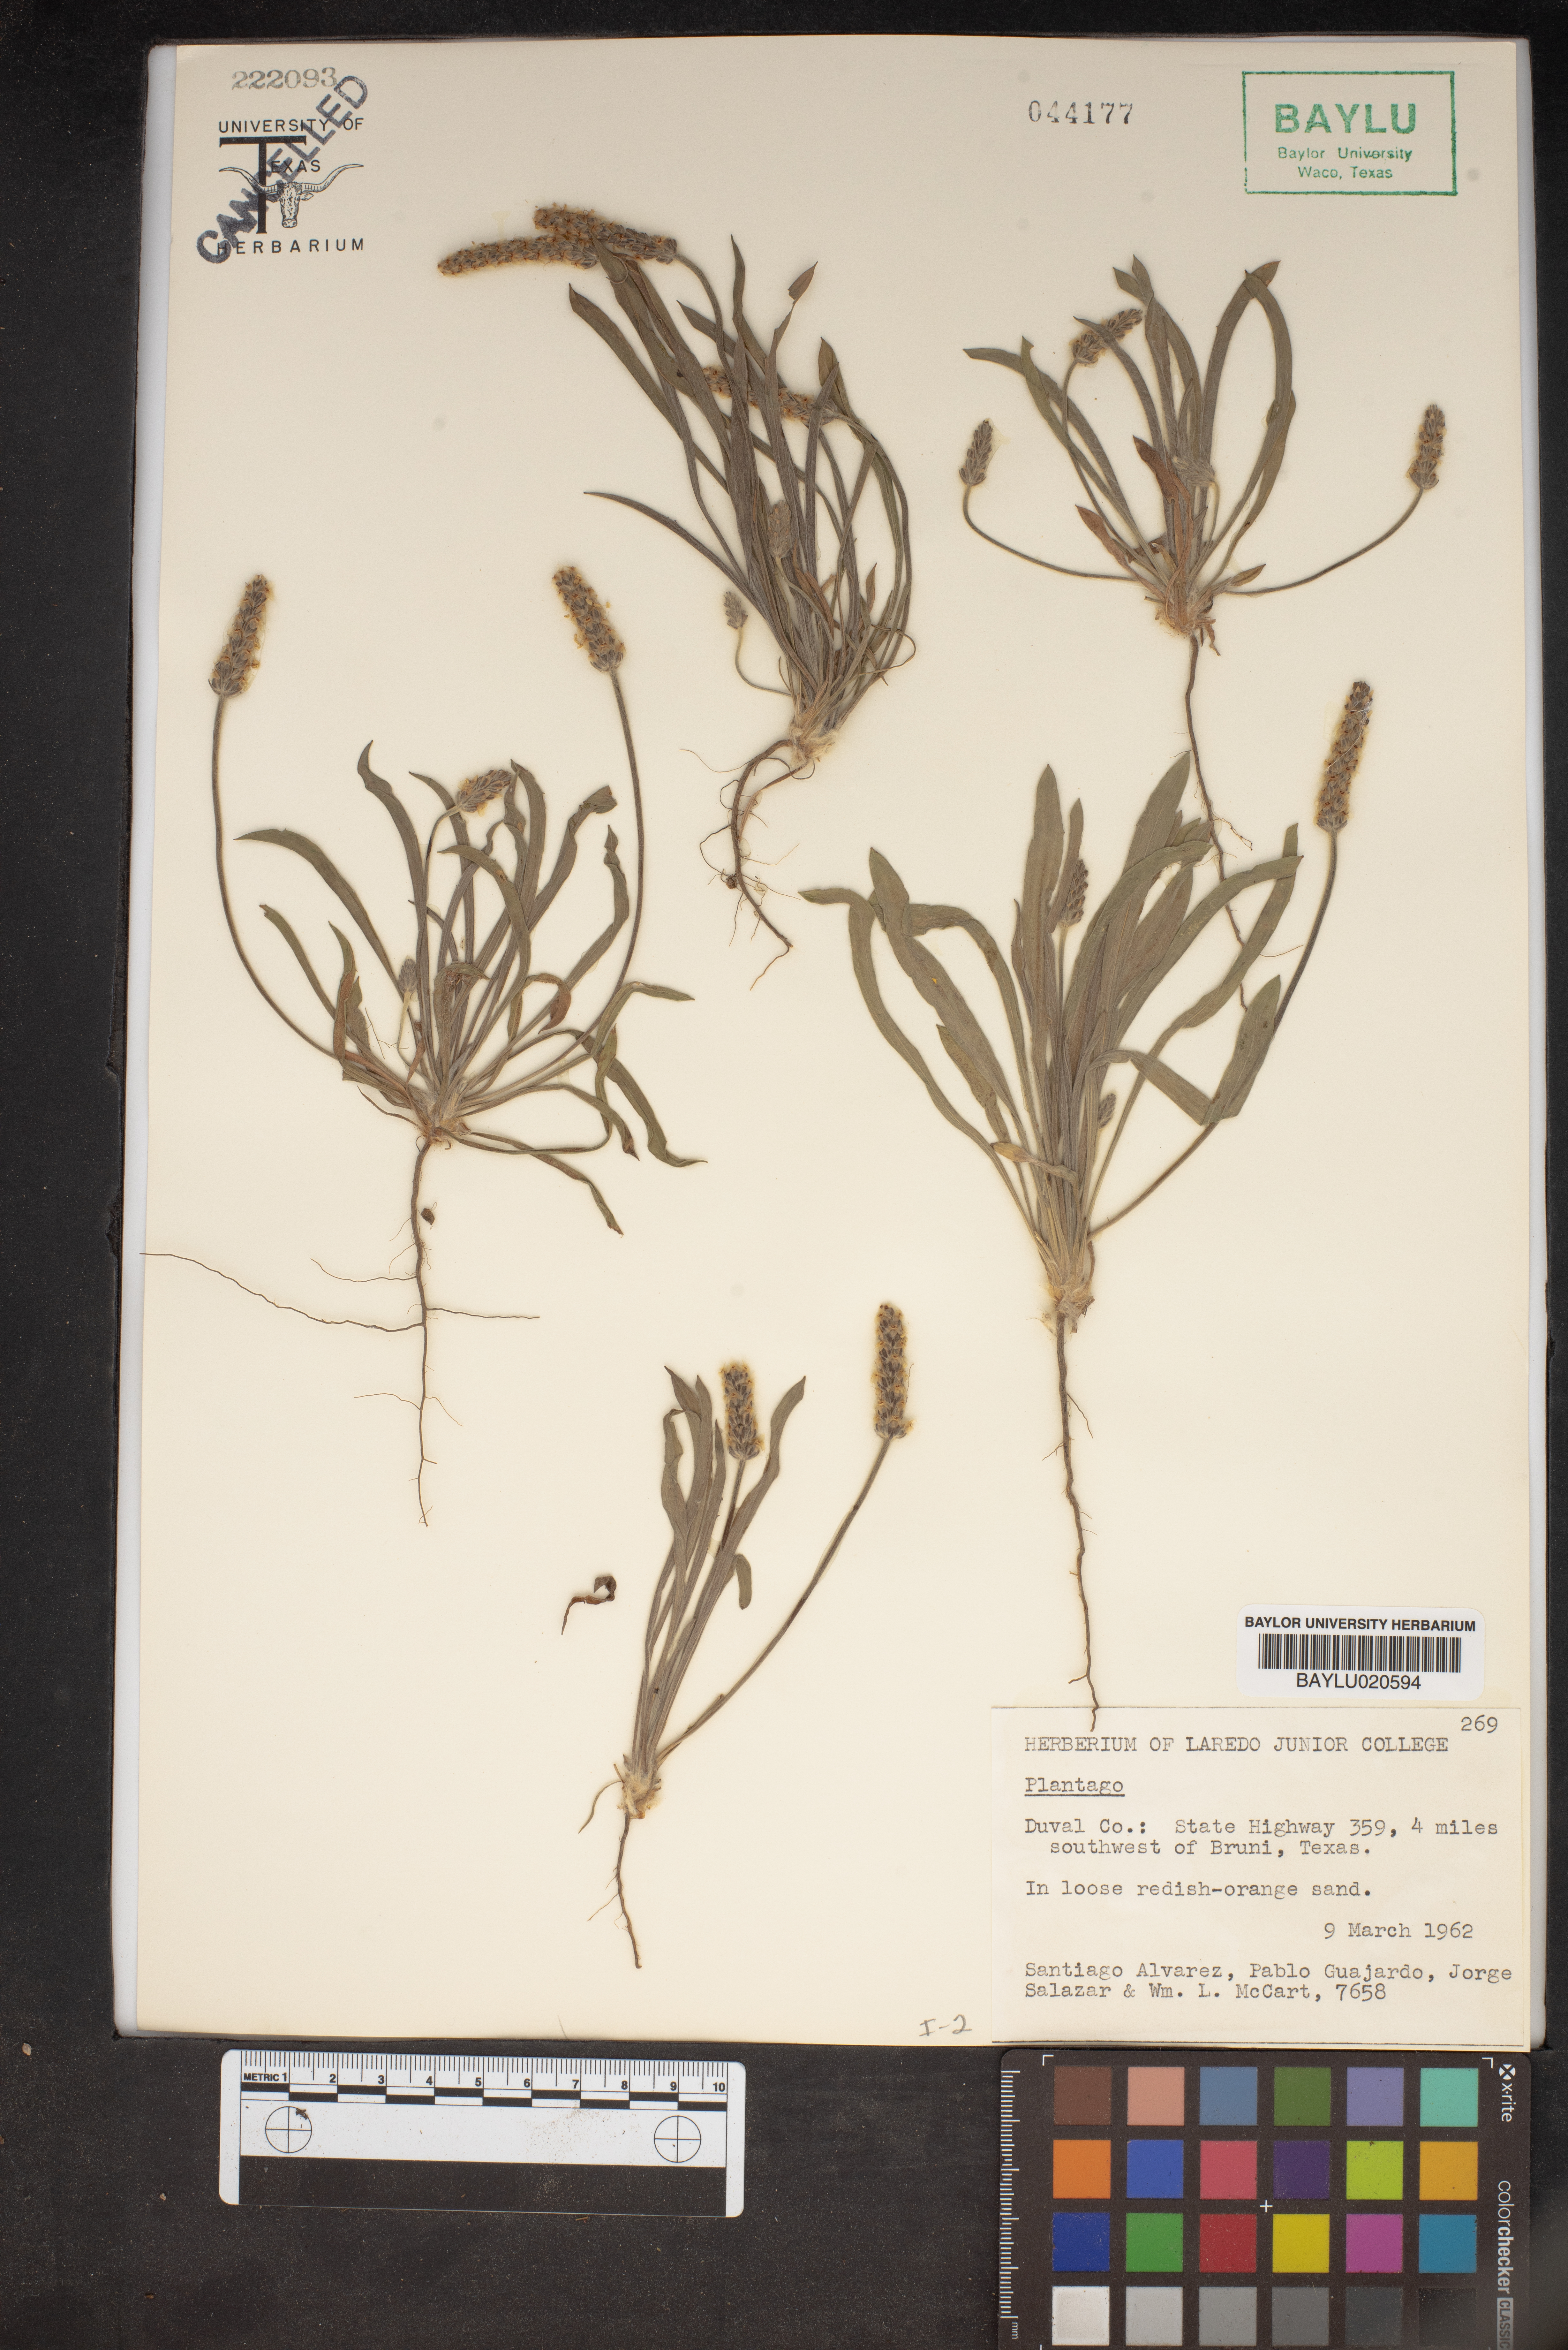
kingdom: Plantae
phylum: Tracheophyta
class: Magnoliopsida
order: Lamiales
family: Plantaginaceae
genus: Plantago
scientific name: Plantago
